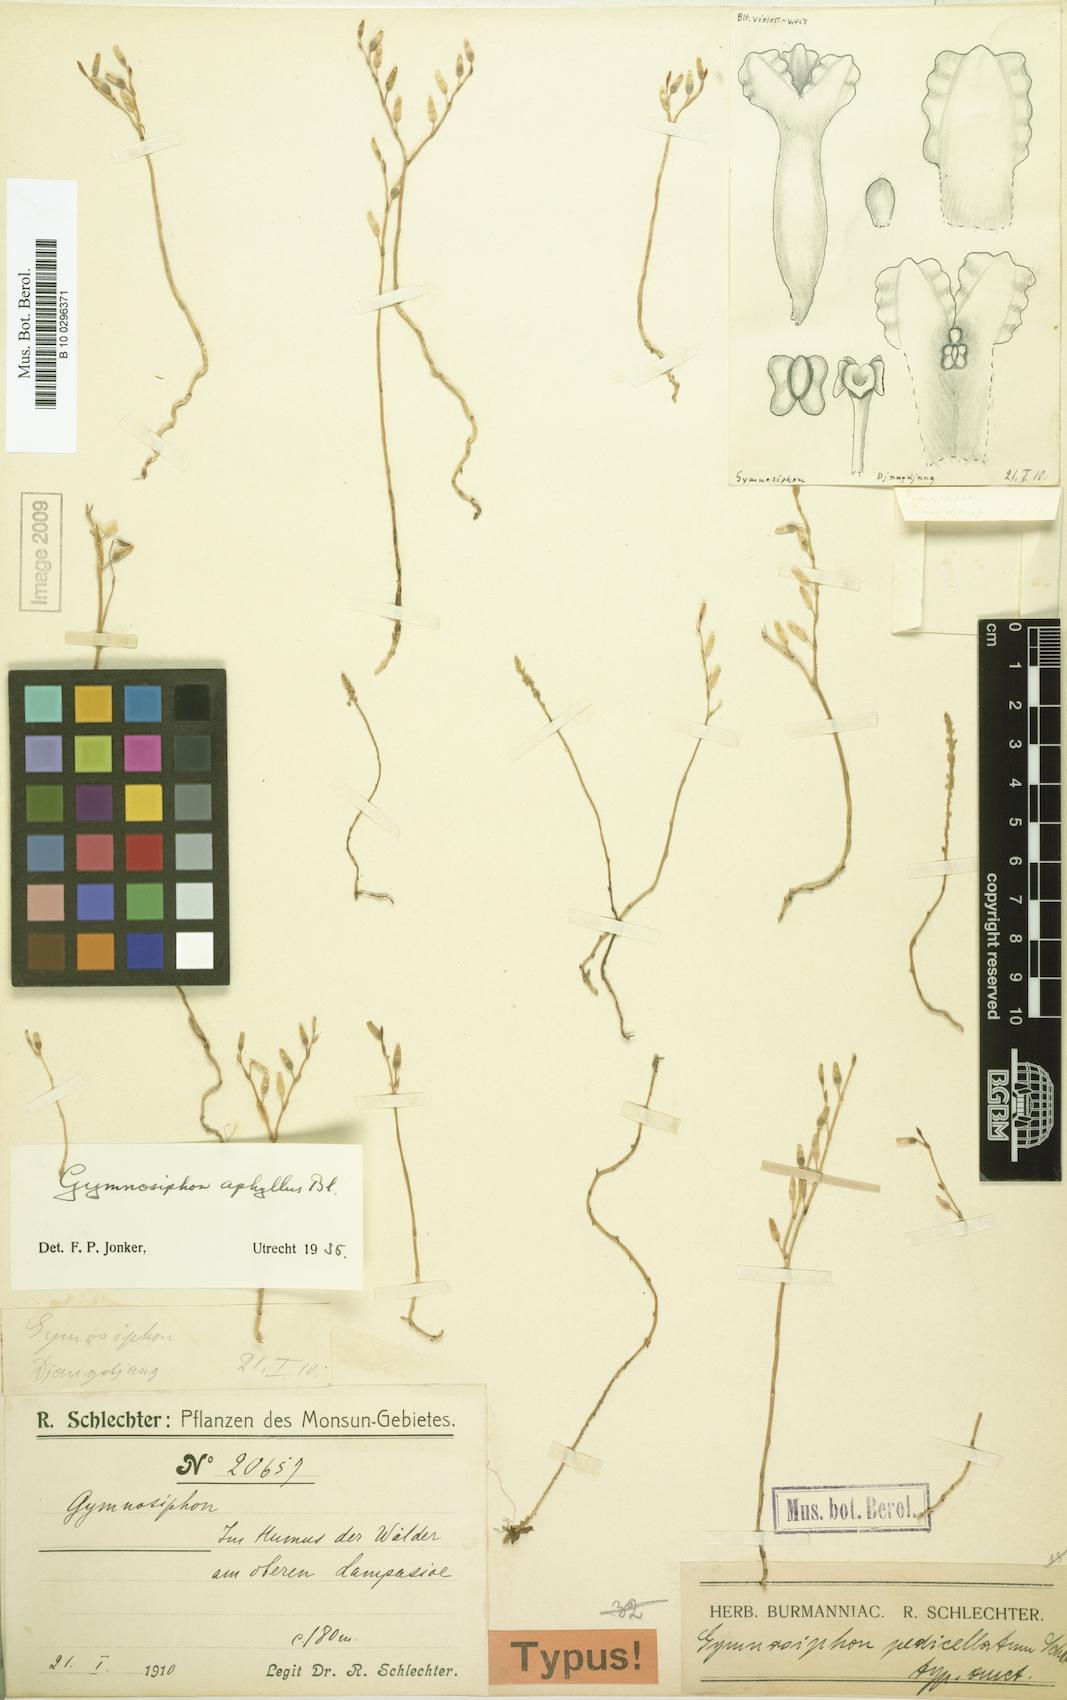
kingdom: Plantae
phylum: Tracheophyta
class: Liliopsida
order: Dioscoreales
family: Burmanniaceae
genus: Gymnosiphon
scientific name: Gymnosiphon aphyllus
